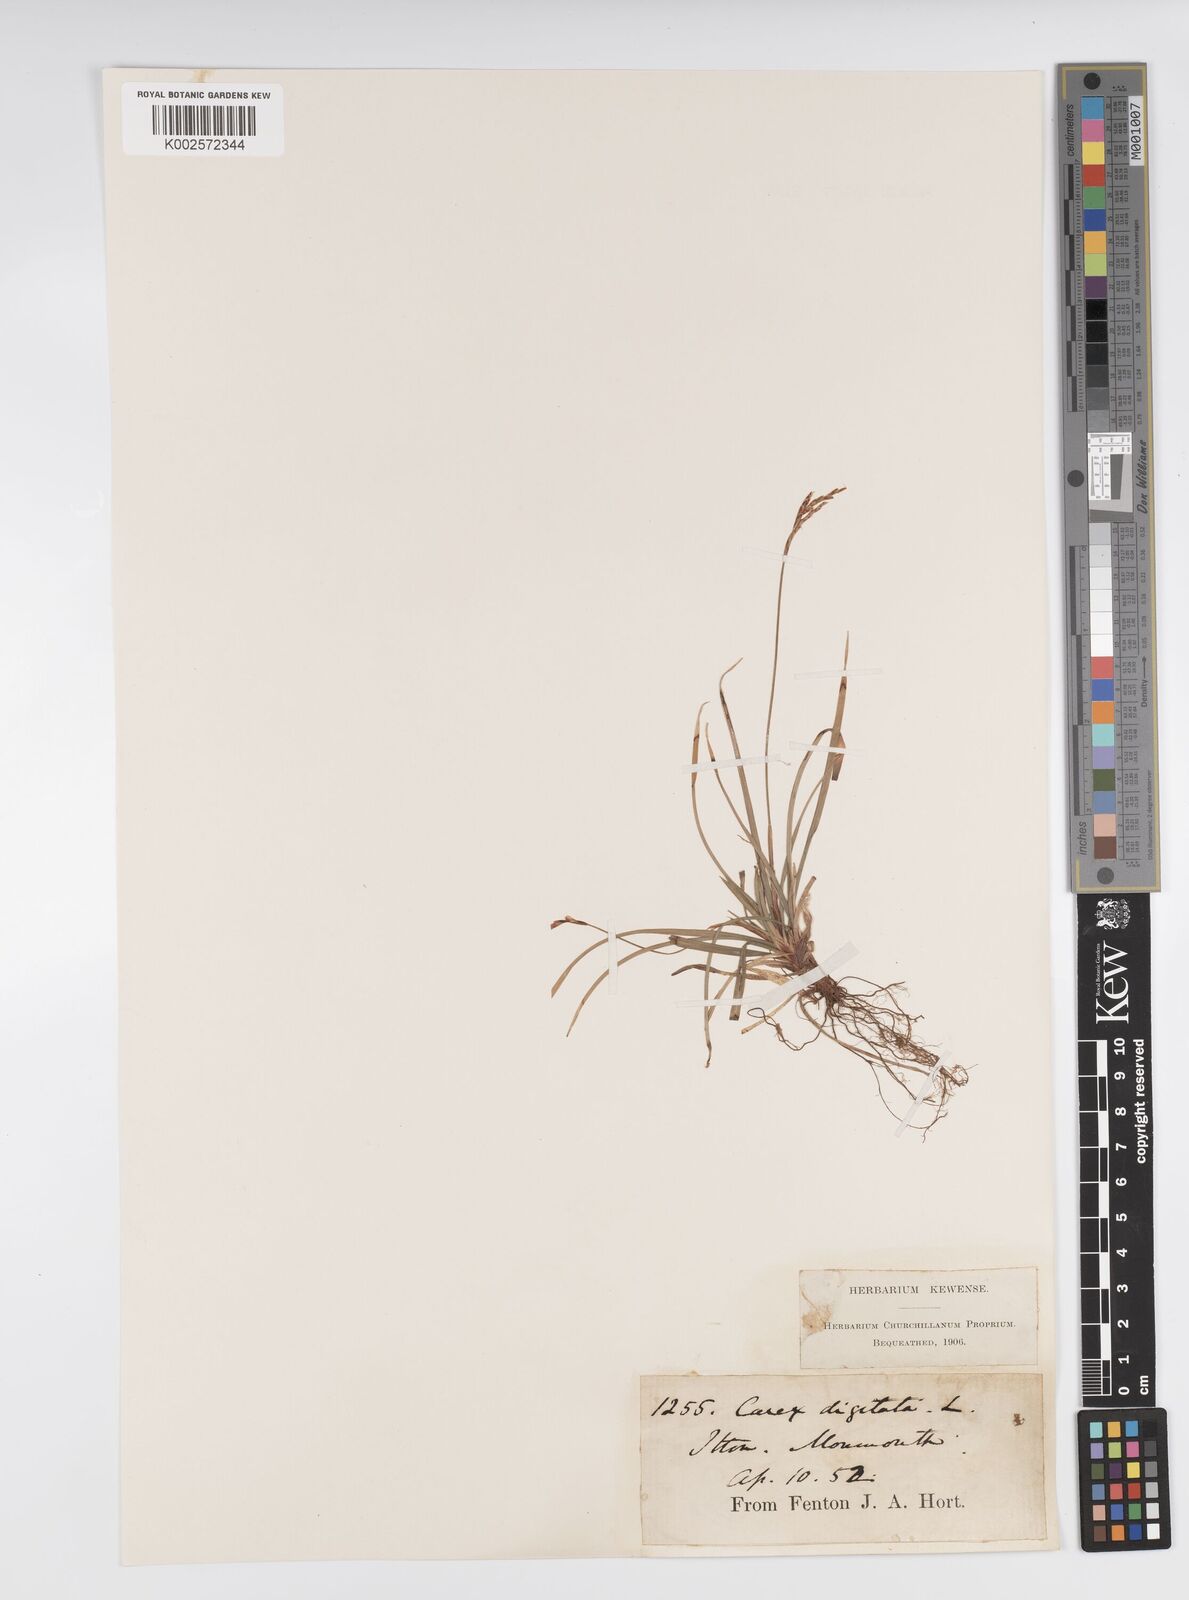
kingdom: Plantae
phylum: Tracheophyta
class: Liliopsida
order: Poales
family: Cyperaceae
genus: Carex
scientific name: Carex digitata
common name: Fingered sedge
